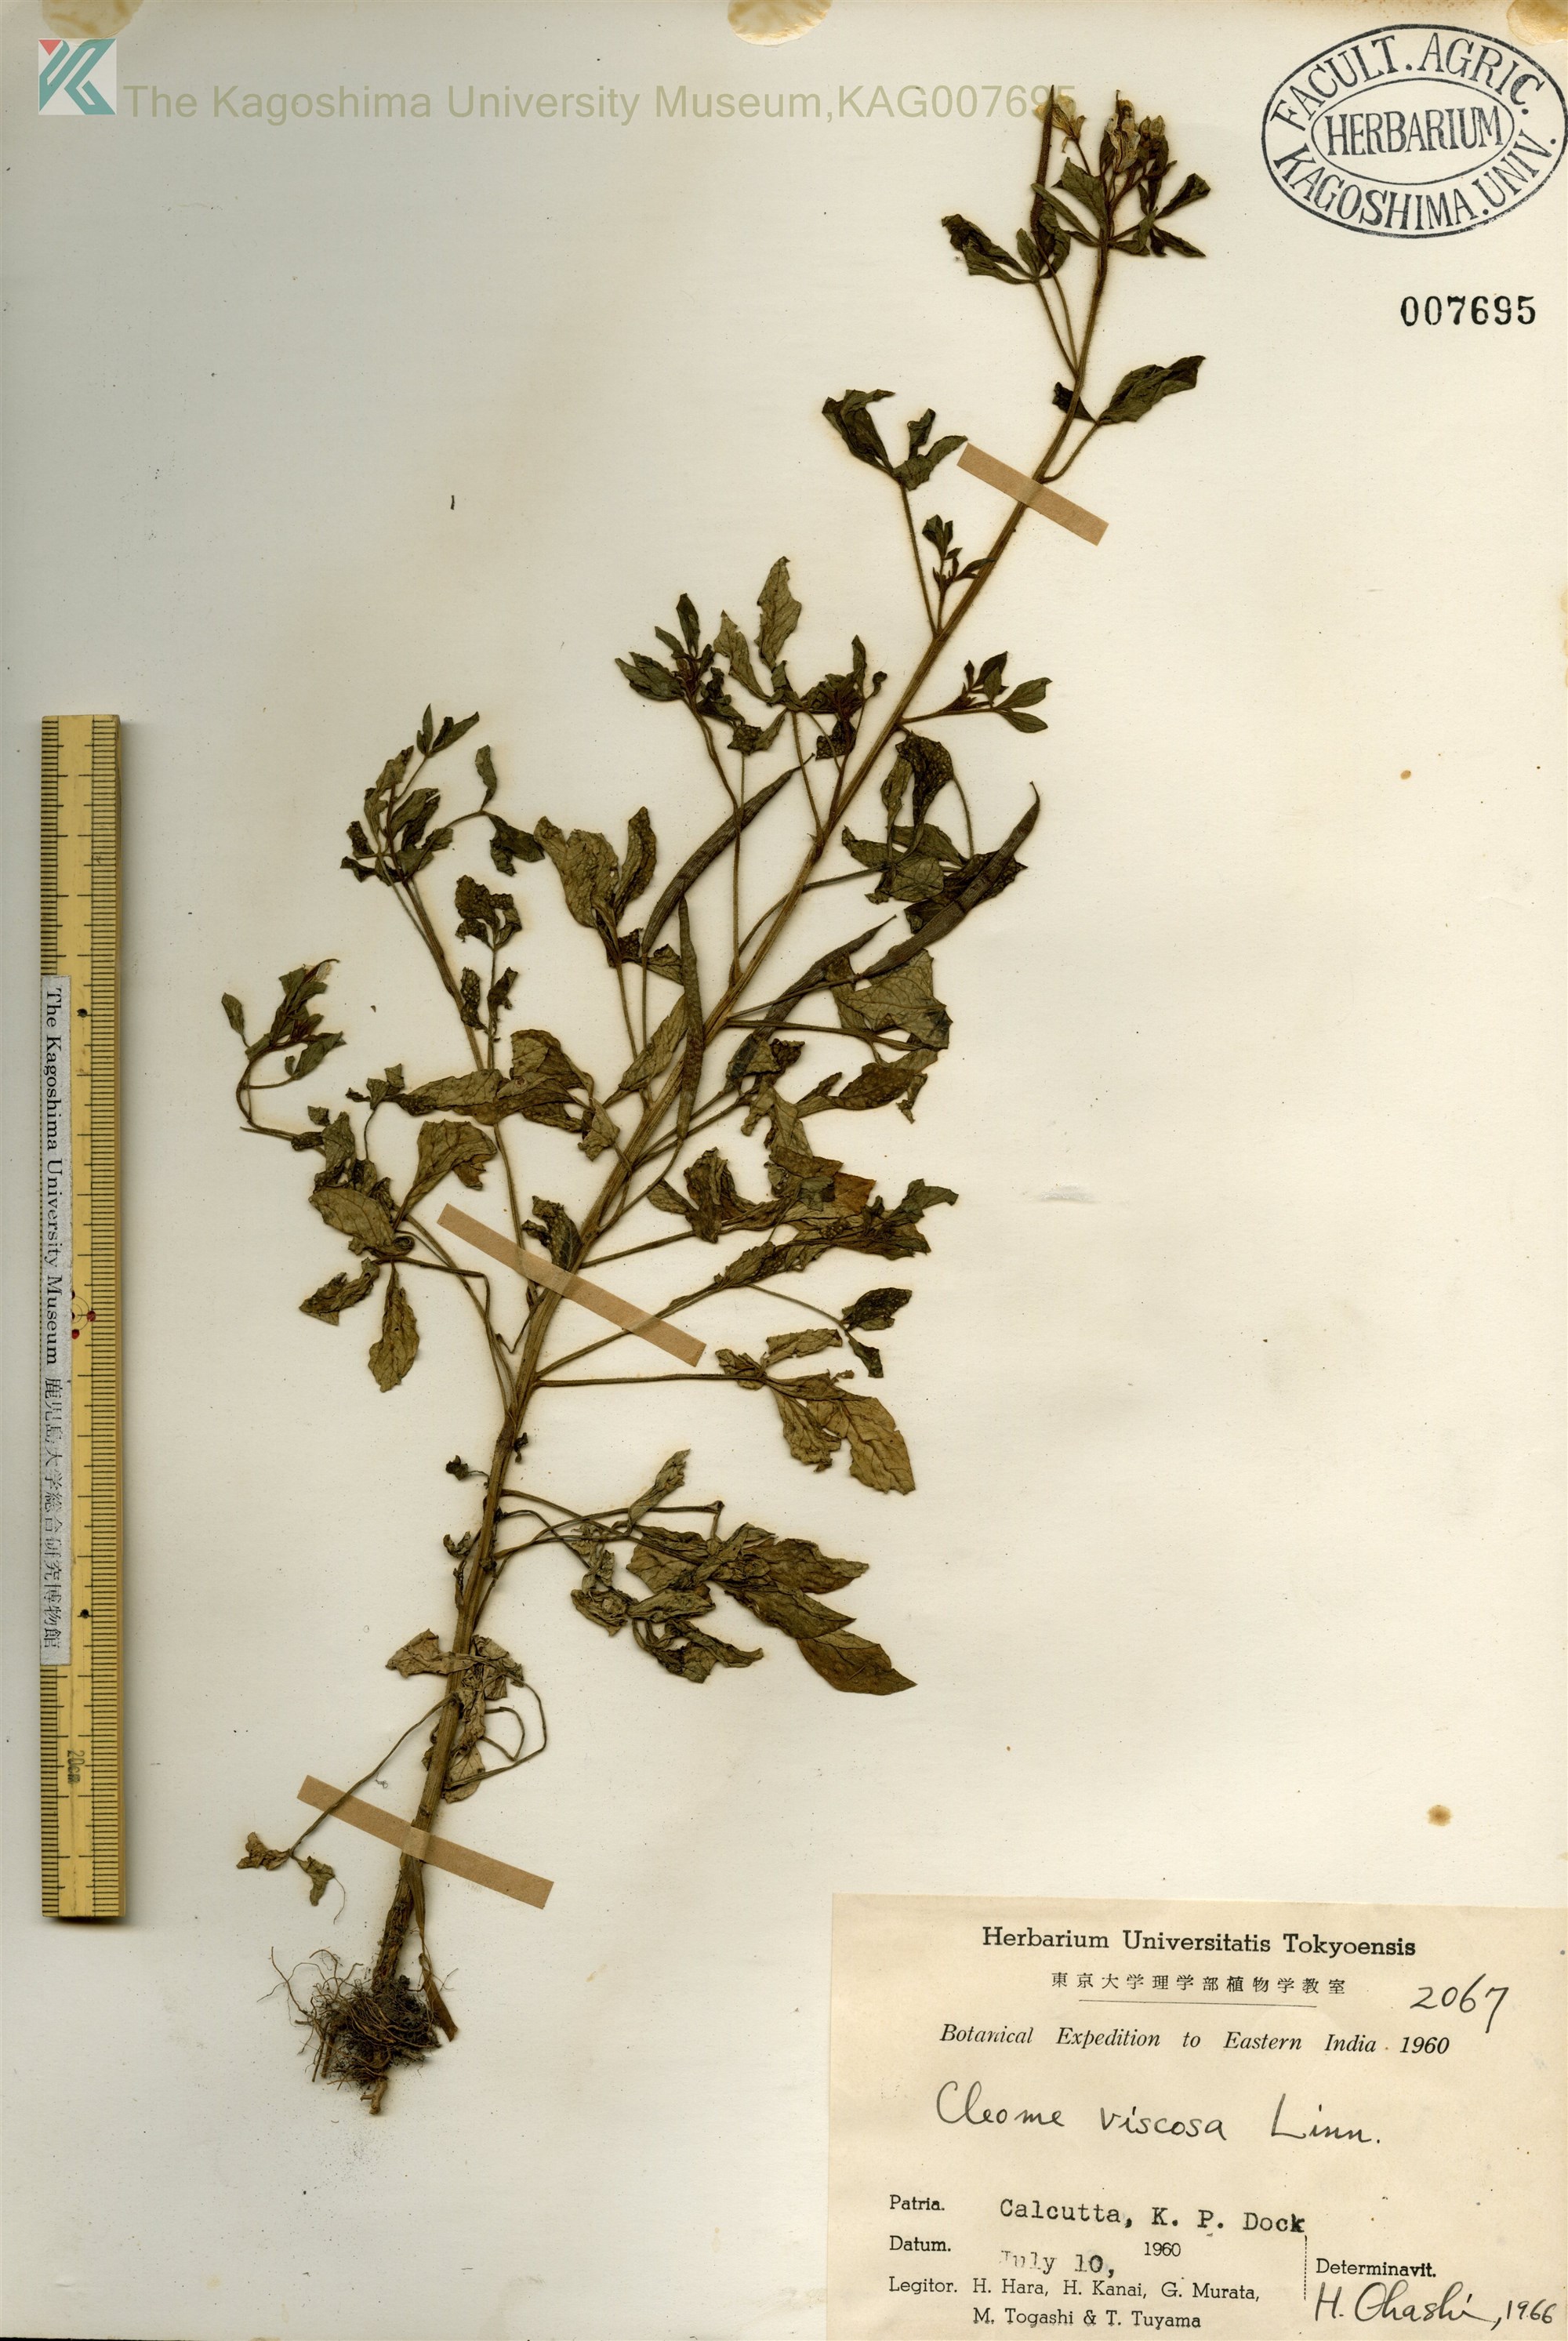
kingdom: Plantae
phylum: Tracheophyta
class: Magnoliopsida
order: Brassicales
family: Cleomaceae
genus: Arivela
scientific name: Arivela viscosa
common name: Asian spiderflower
